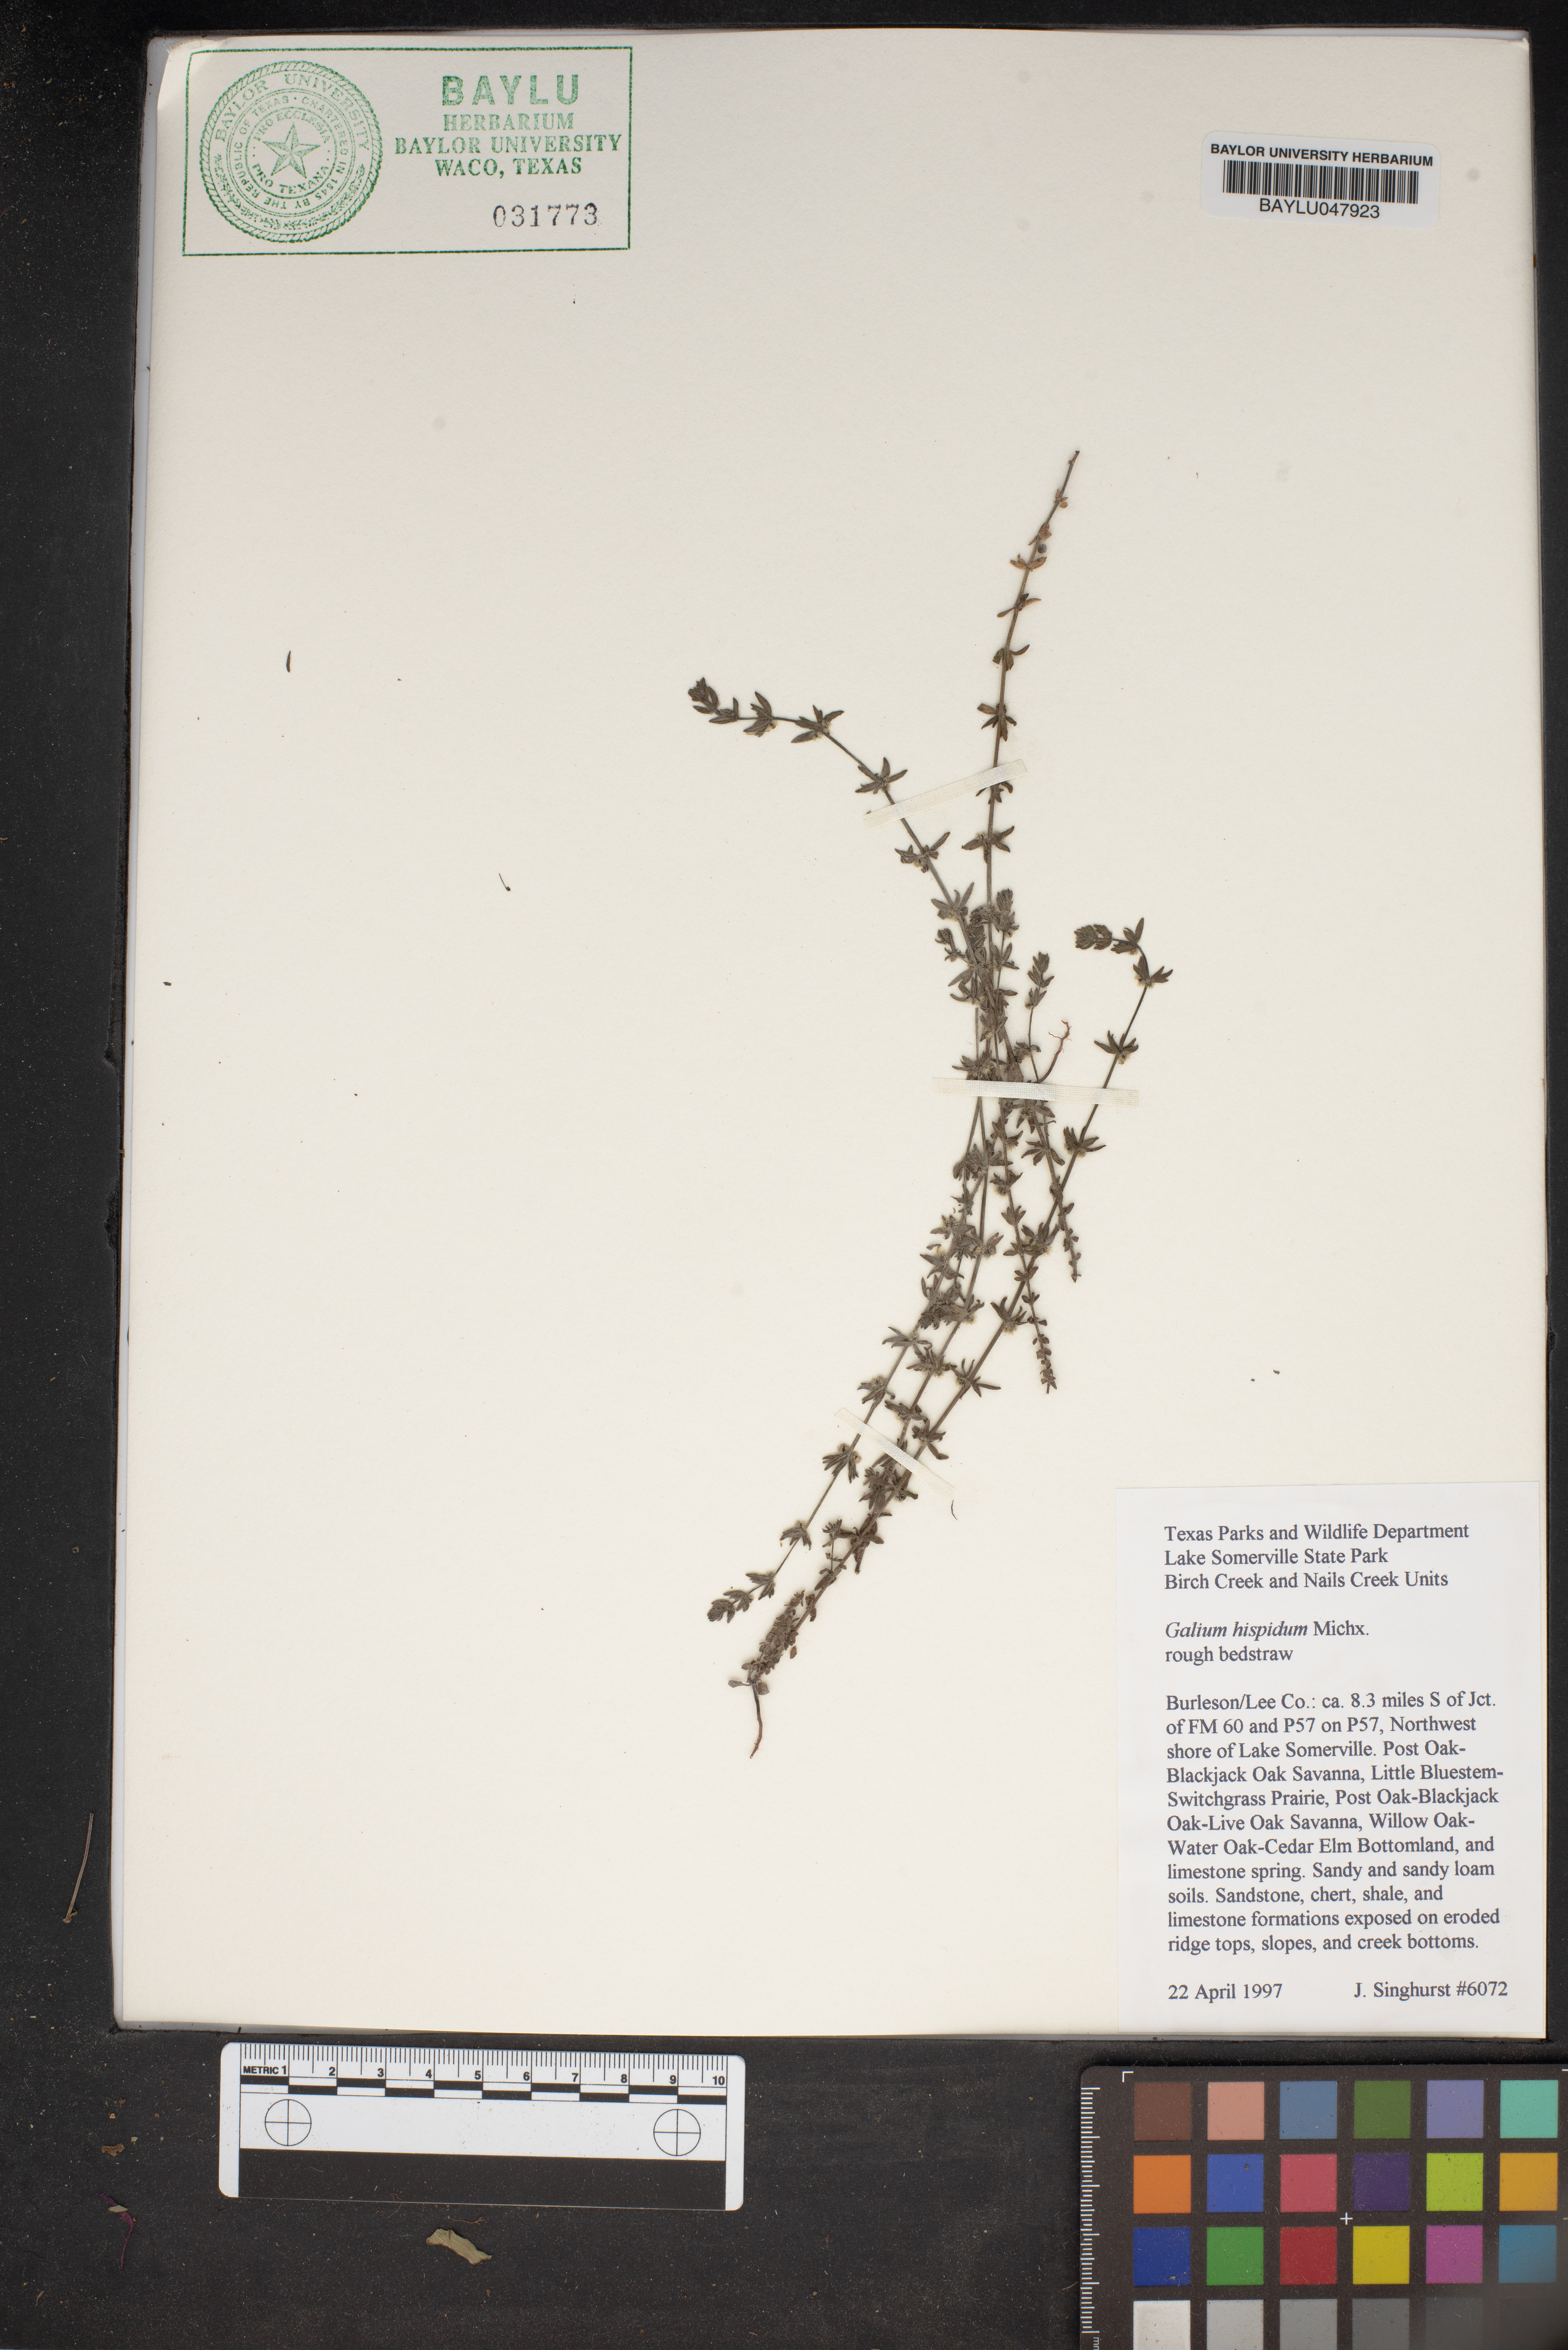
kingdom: Plantae
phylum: Tracheophyta
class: Magnoliopsida
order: Gentianales
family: Rubiaceae
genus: Galium
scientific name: Galium bermudense
